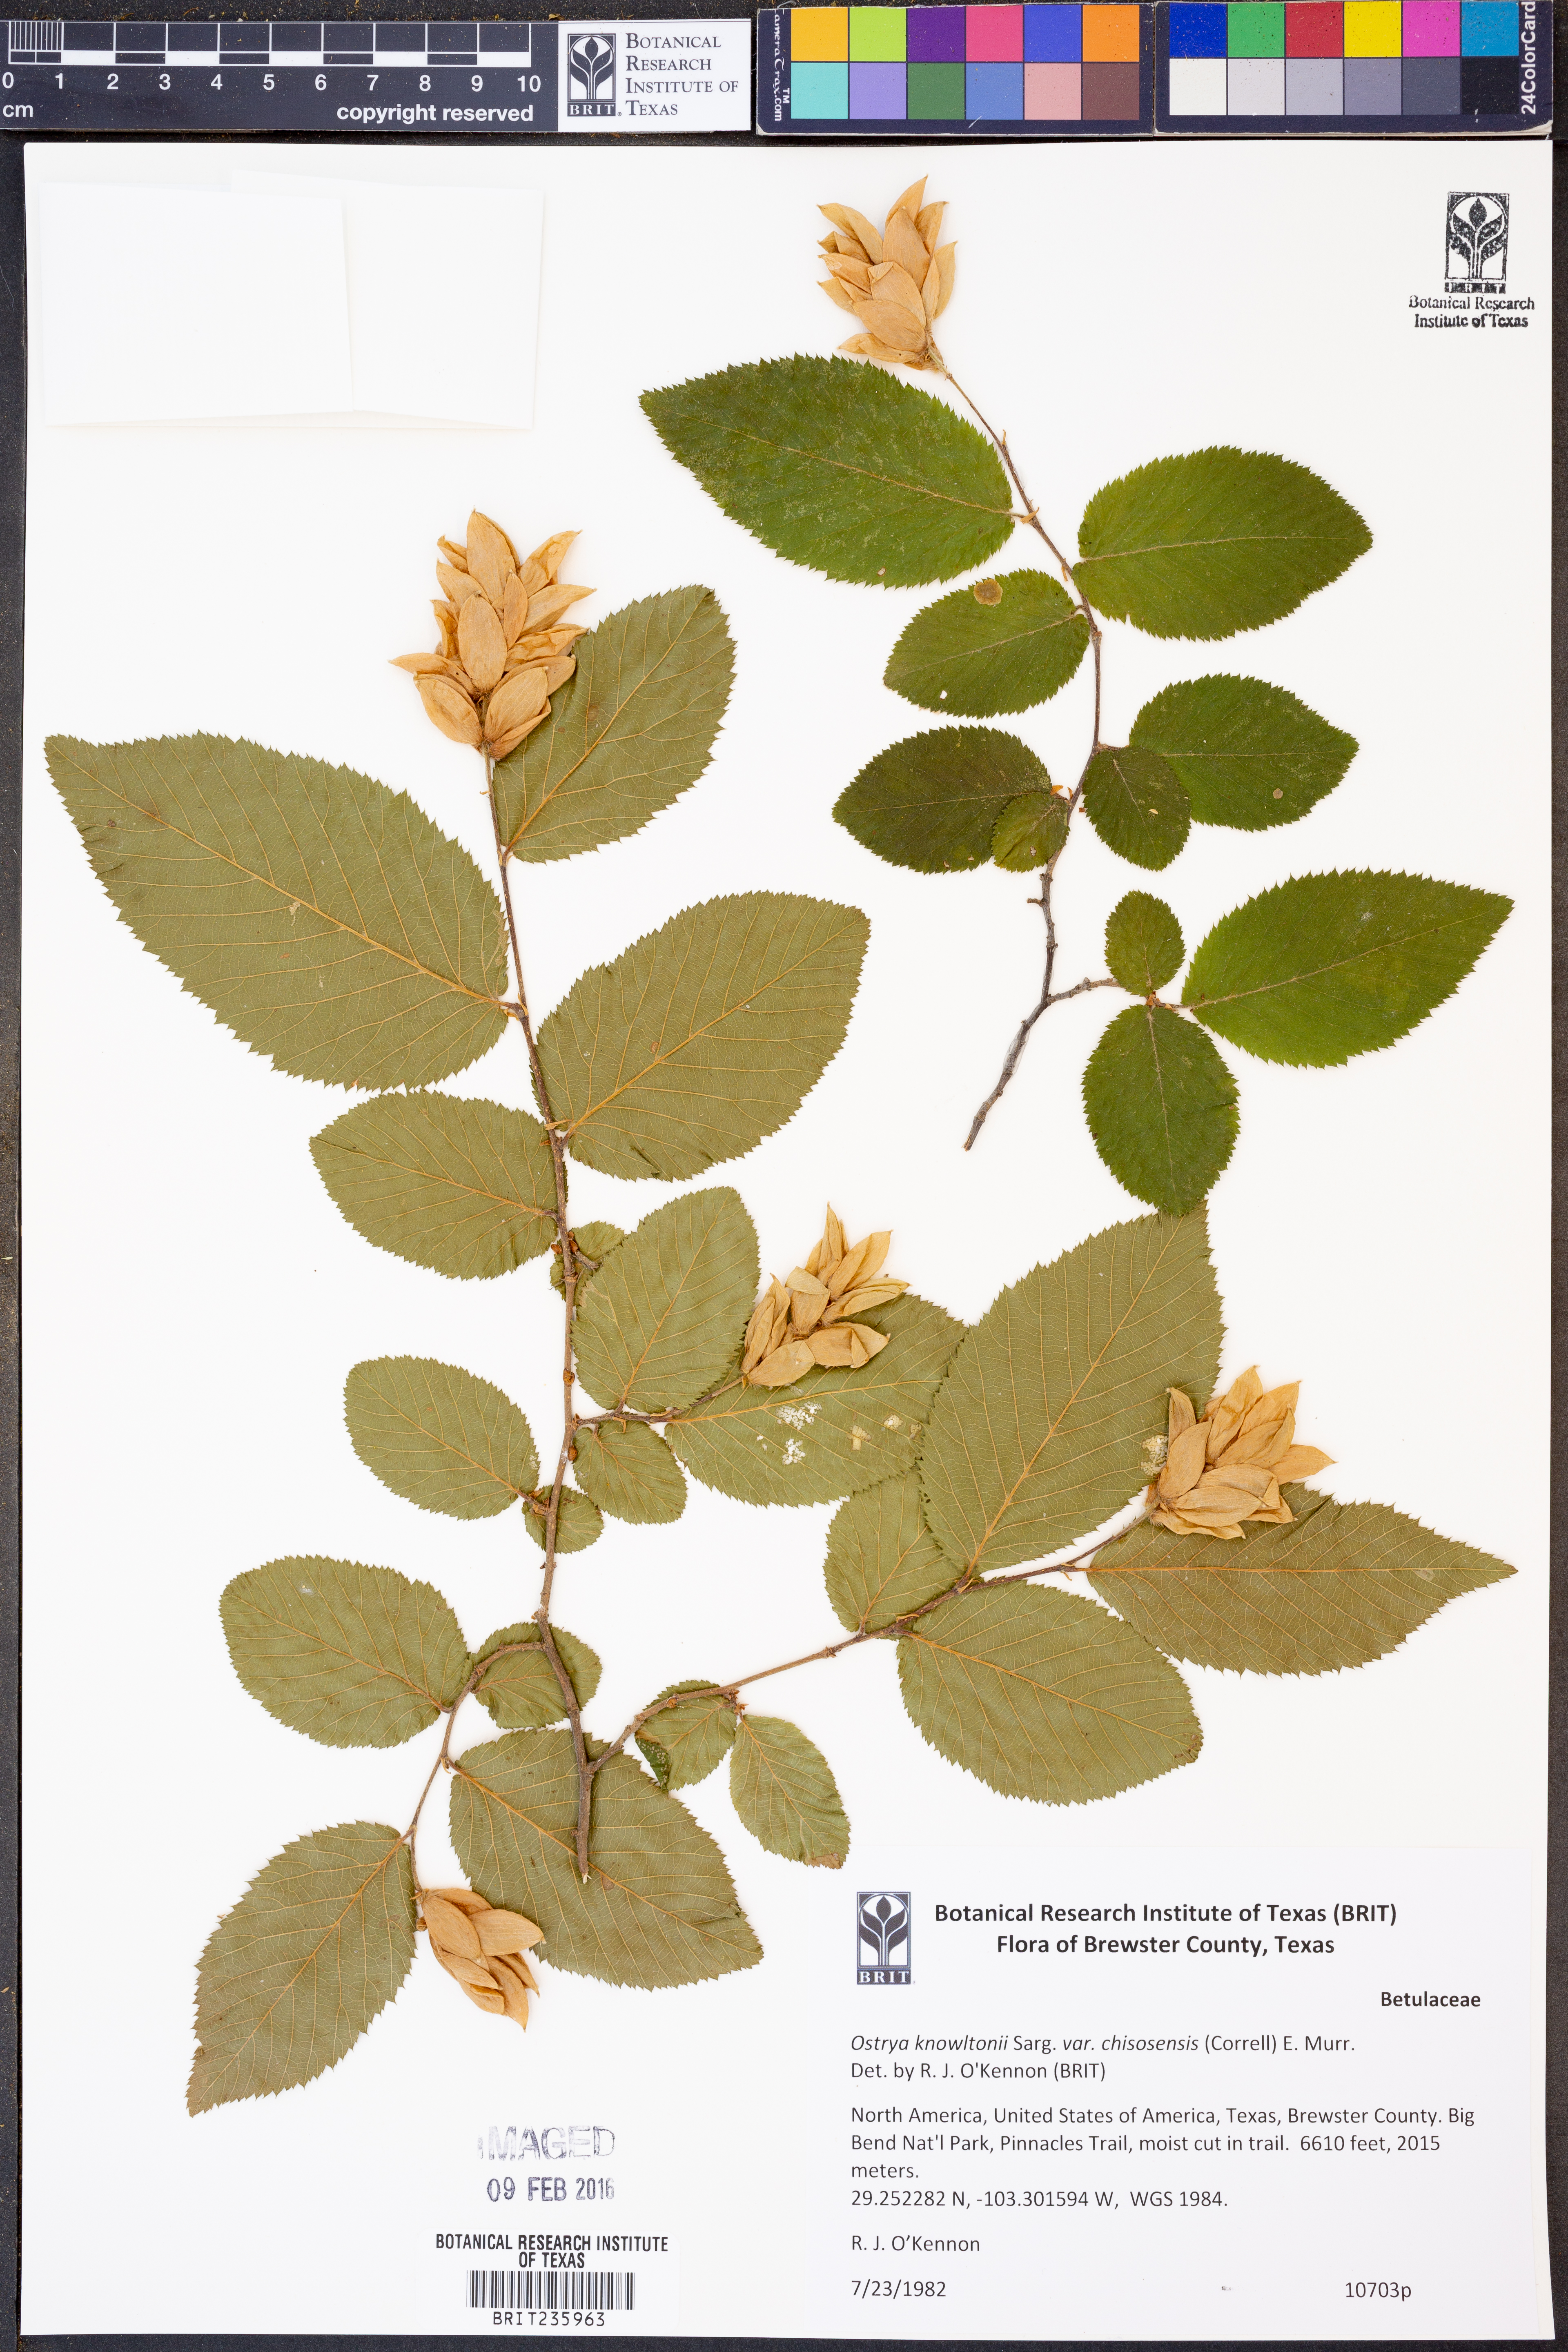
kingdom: Plantae
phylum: Tracheophyta
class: Magnoliopsida
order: Fagales
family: Betulaceae
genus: Ostrya
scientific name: Ostrya knowltonii
